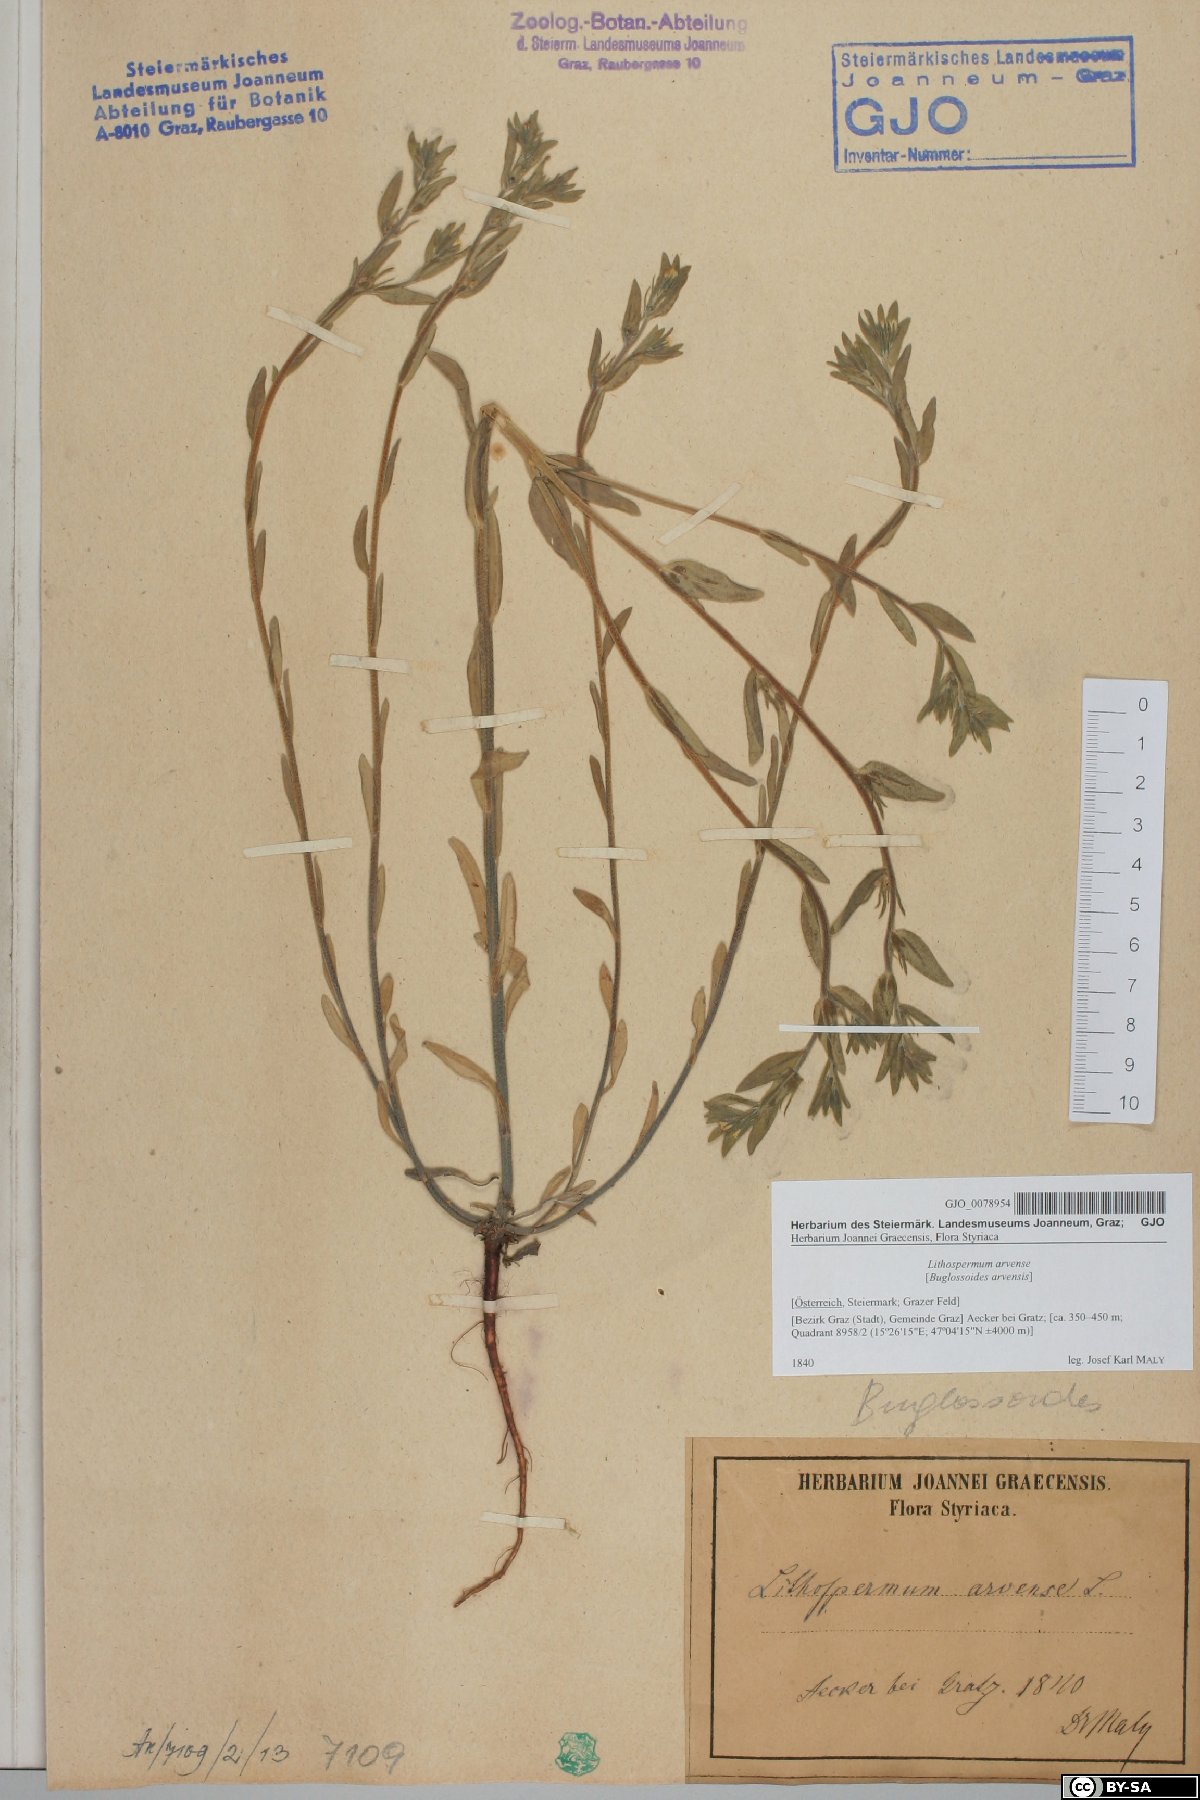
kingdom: Plantae
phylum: Tracheophyta
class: Magnoliopsida
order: Boraginales
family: Boraginaceae
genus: Buglossoides
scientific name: Buglossoides arvensis
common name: Corn gromwell
